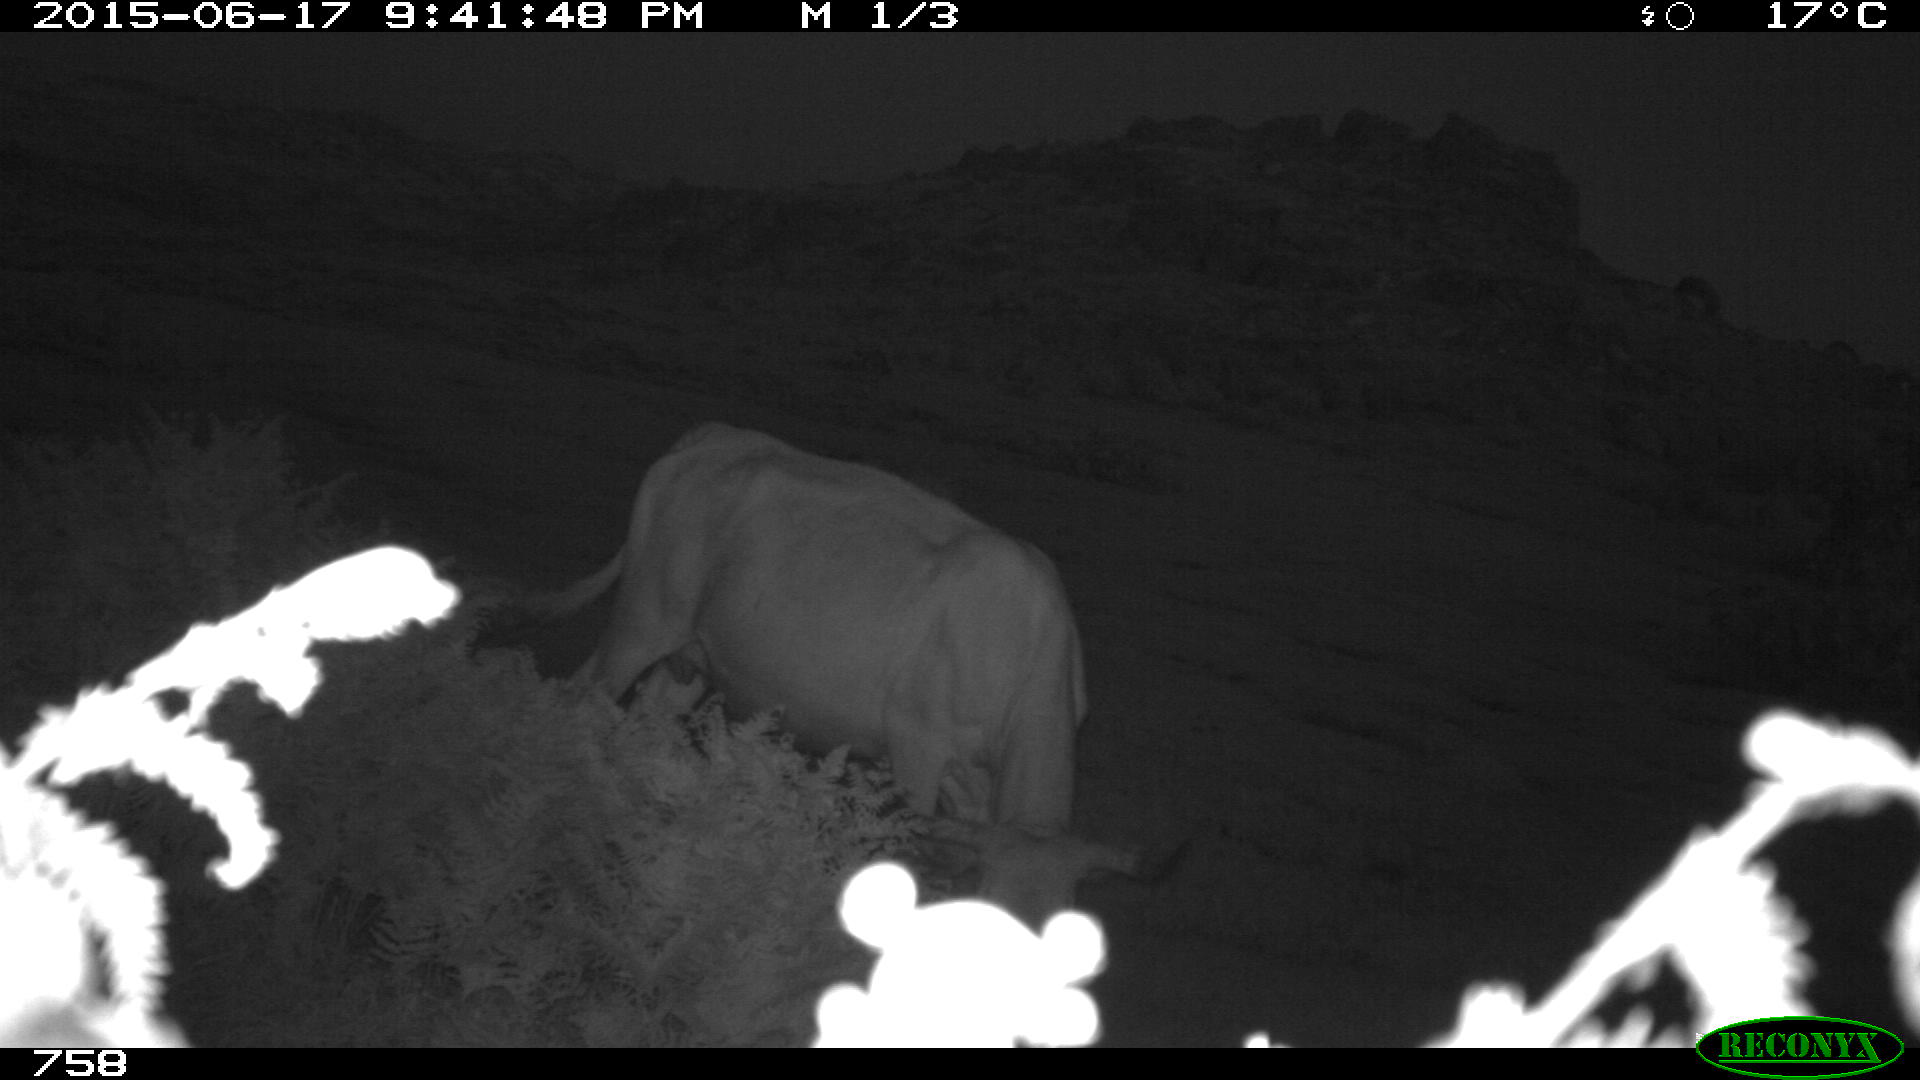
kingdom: Animalia
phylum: Chordata
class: Mammalia
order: Artiodactyla
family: Bovidae
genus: Bos
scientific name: Bos taurus
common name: Domesticated cattle
